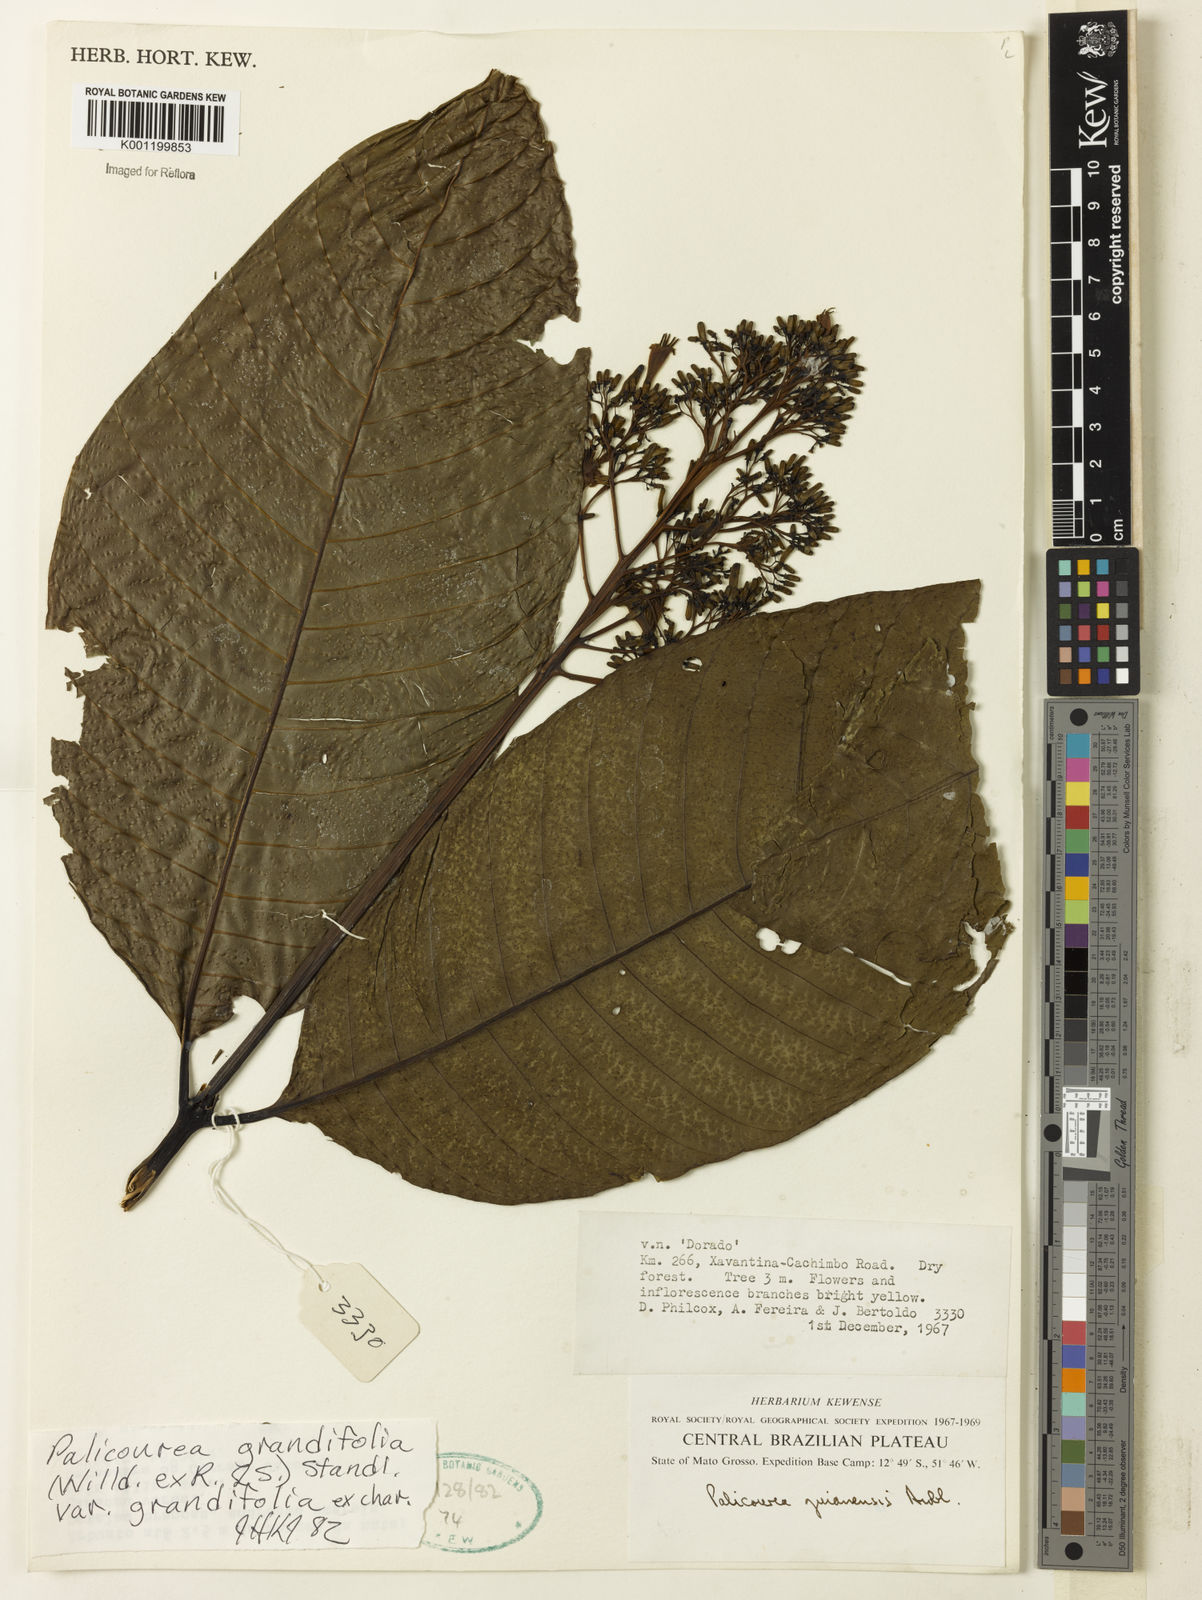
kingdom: Plantae
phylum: Tracheophyta
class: Magnoliopsida
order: Gentianales
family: Rubiaceae
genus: Palicourea
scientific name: Palicourea grandifolia
